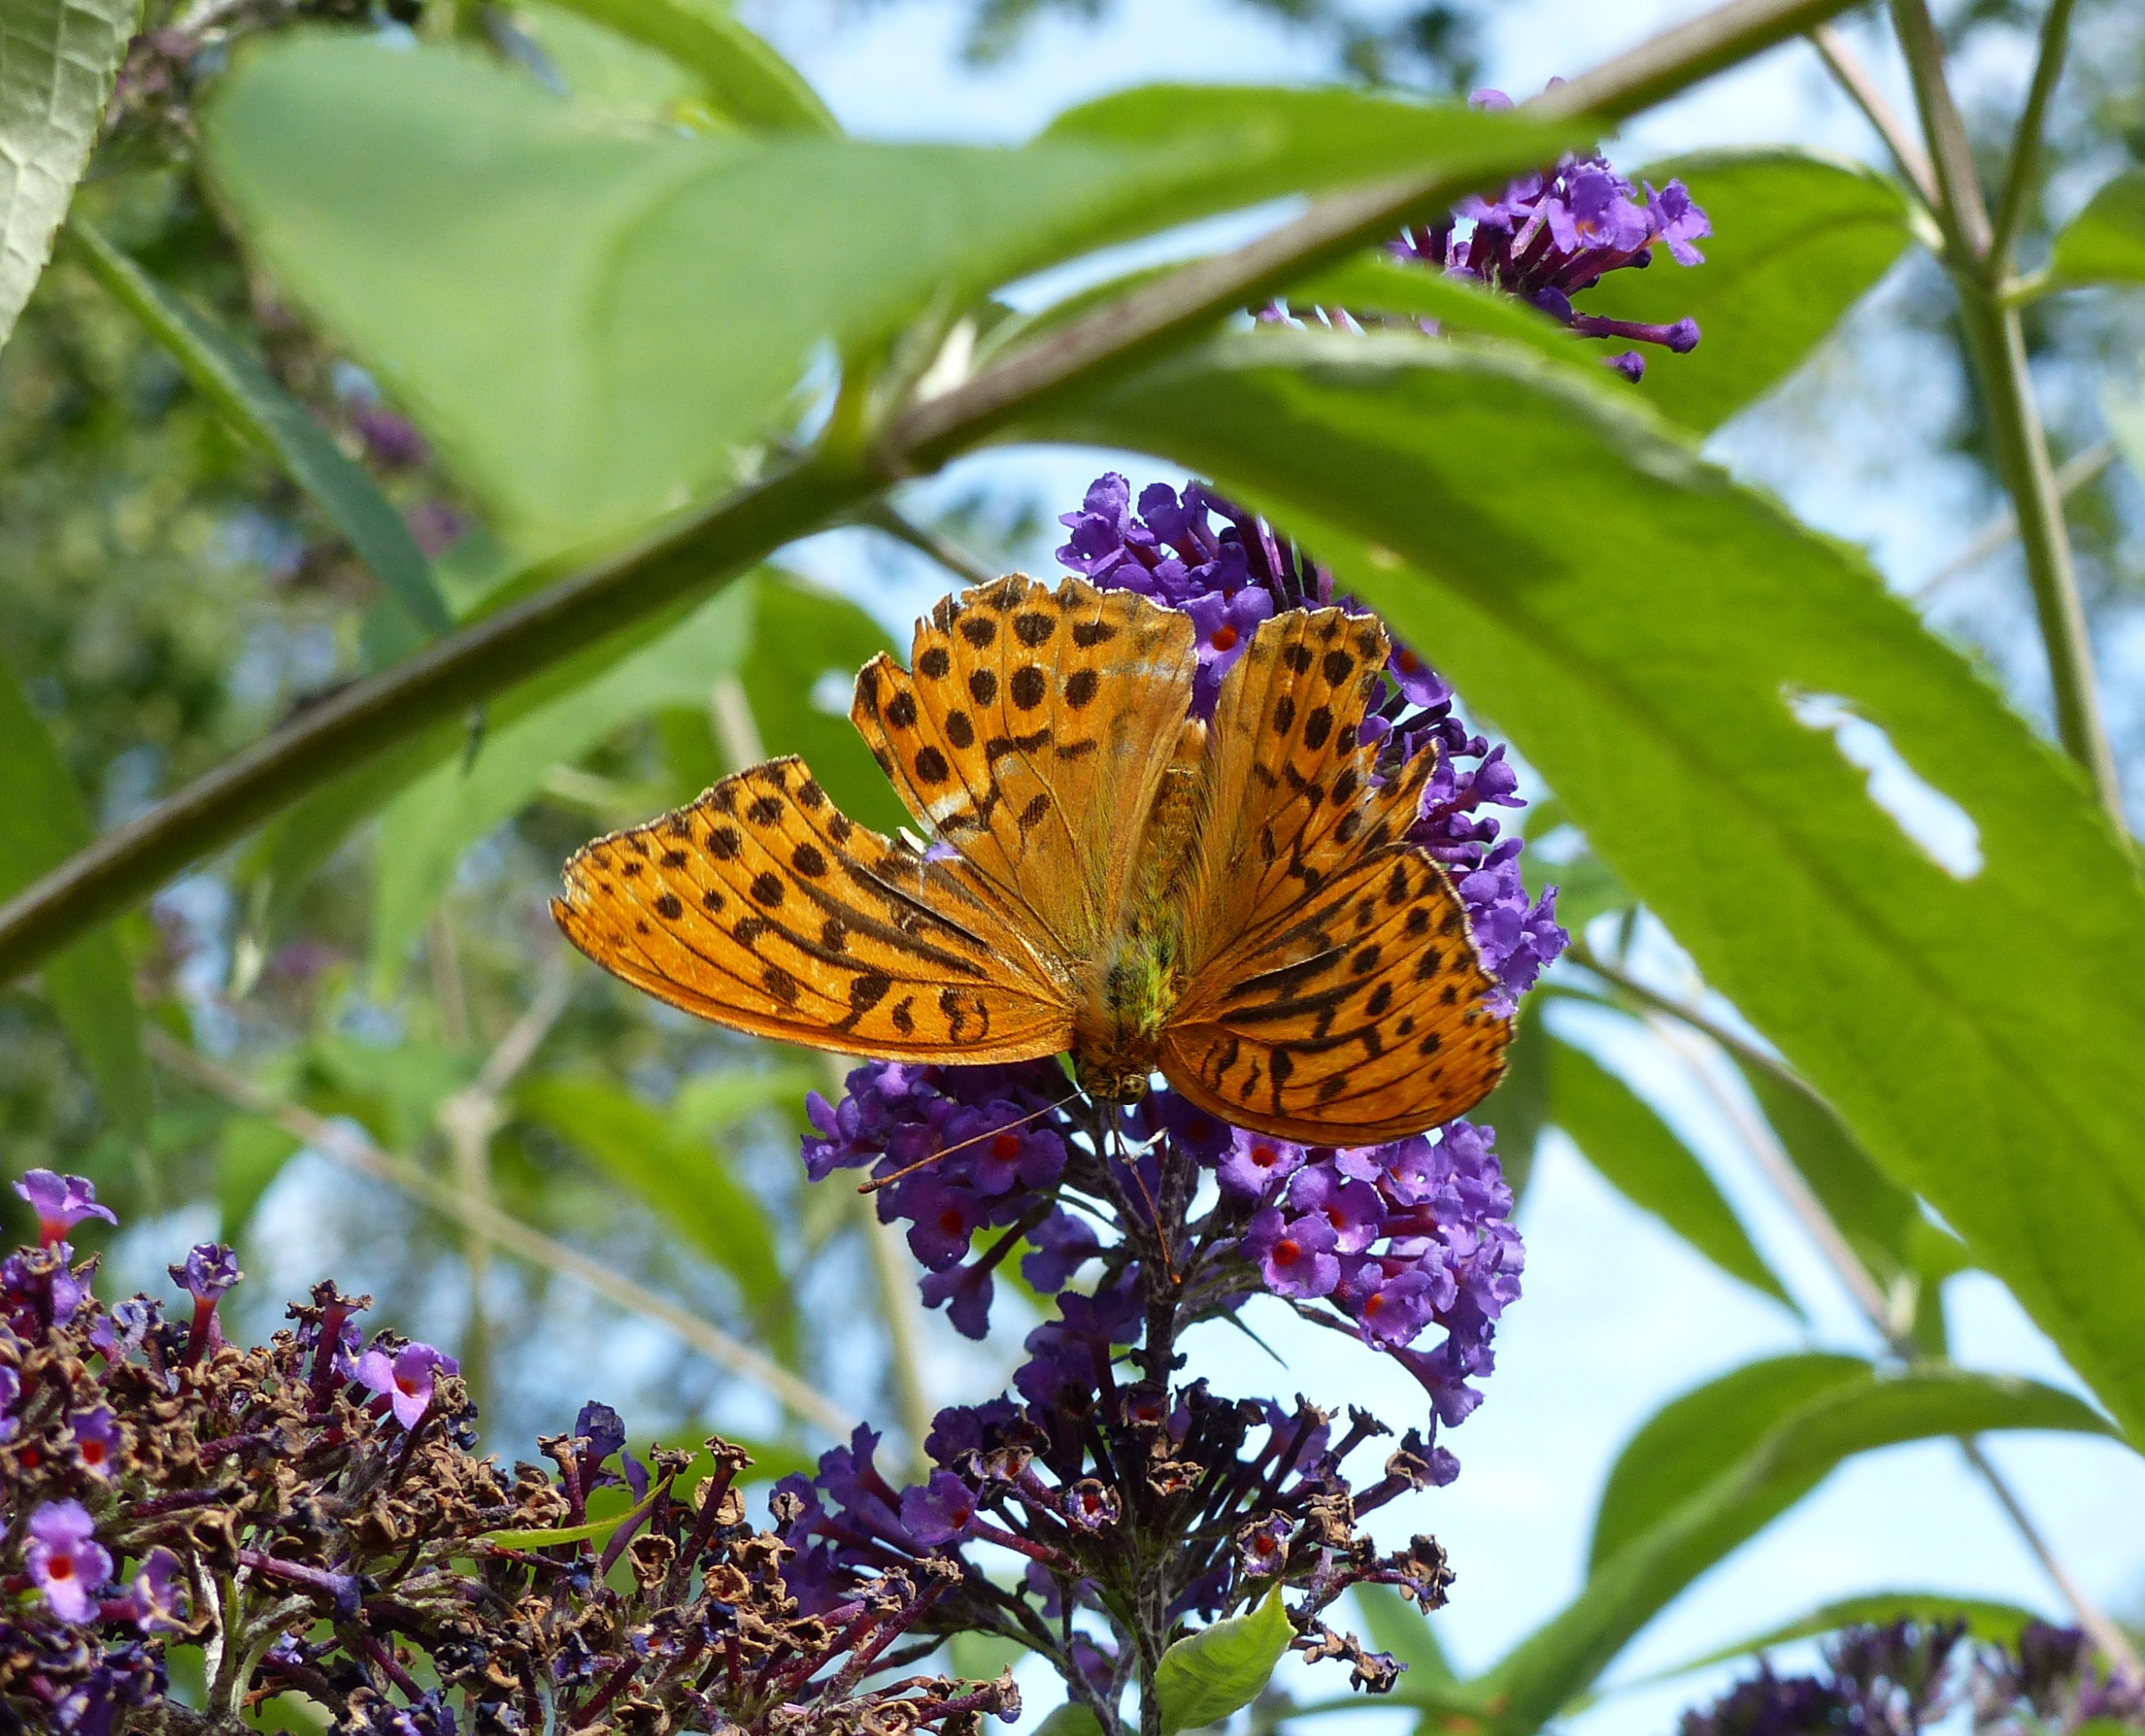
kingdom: Animalia
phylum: Arthropoda
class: Insecta
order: Lepidoptera
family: Nymphalidae
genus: Argynnis
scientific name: Argynnis paphia
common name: Kejserkåbe
